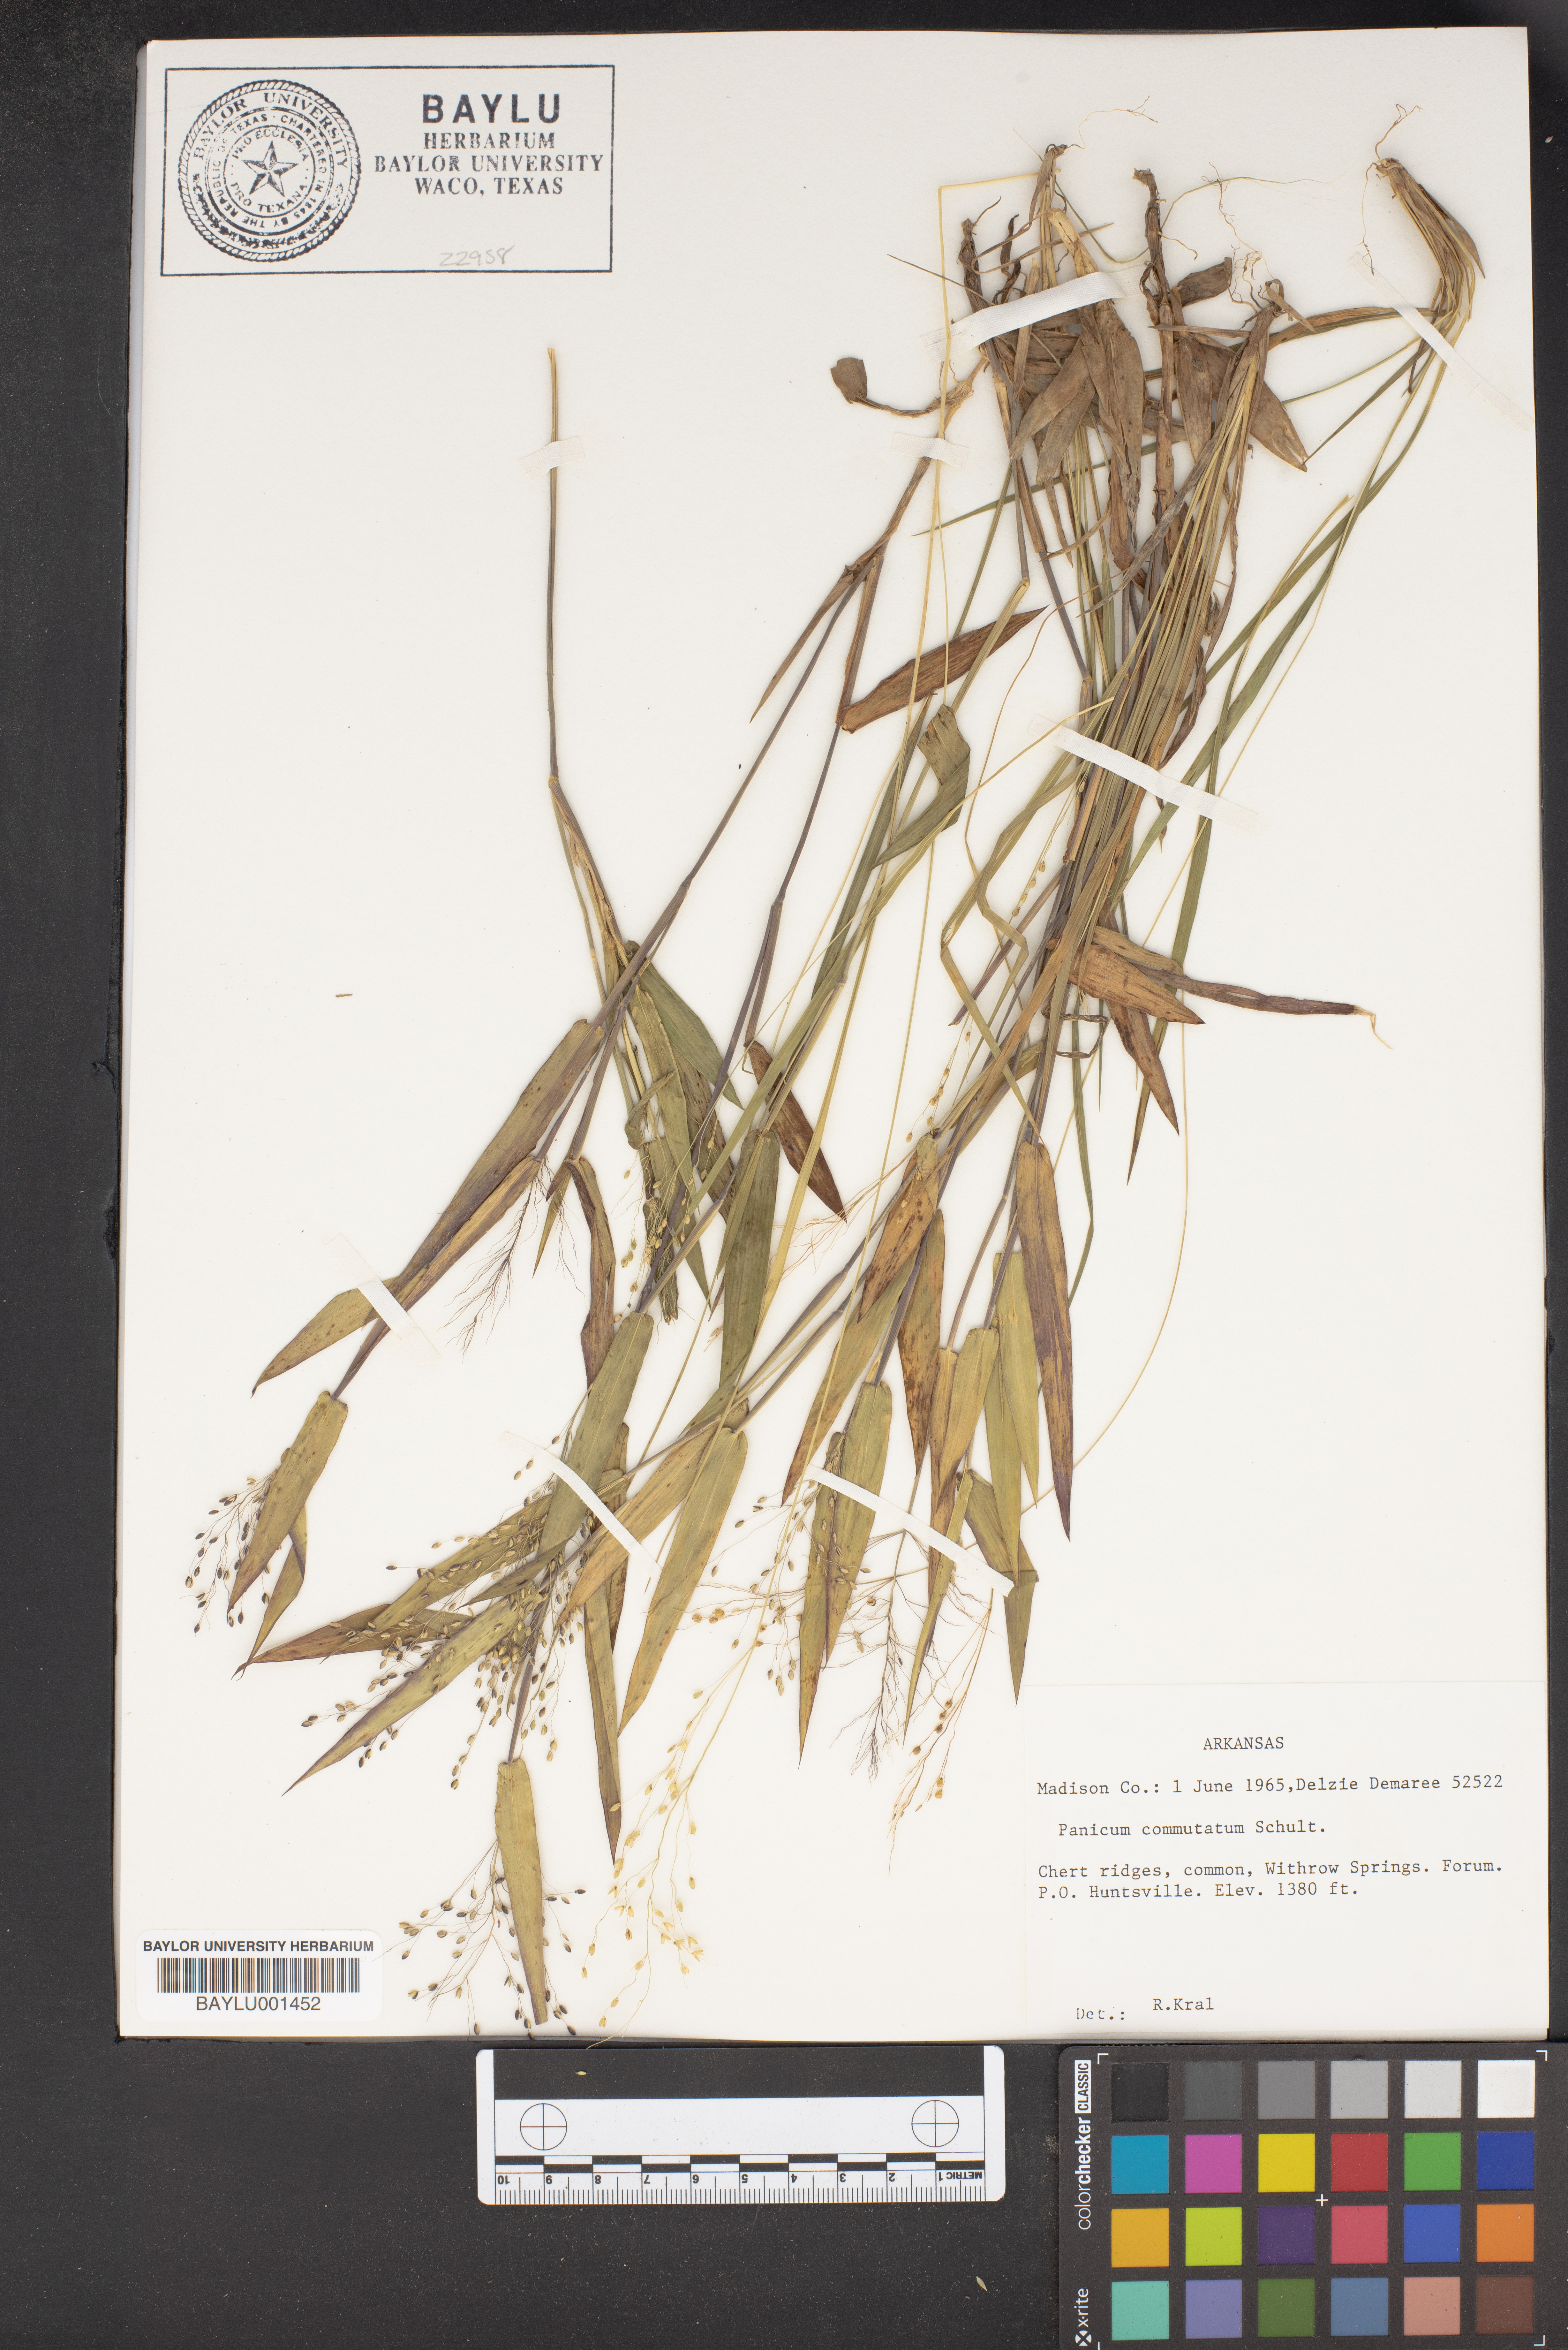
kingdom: Plantae
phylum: Tracheophyta
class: Liliopsida
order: Poales
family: Poaceae
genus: Dichanthelium
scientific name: Dichanthelium commutatum
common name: Variable witchgrass
